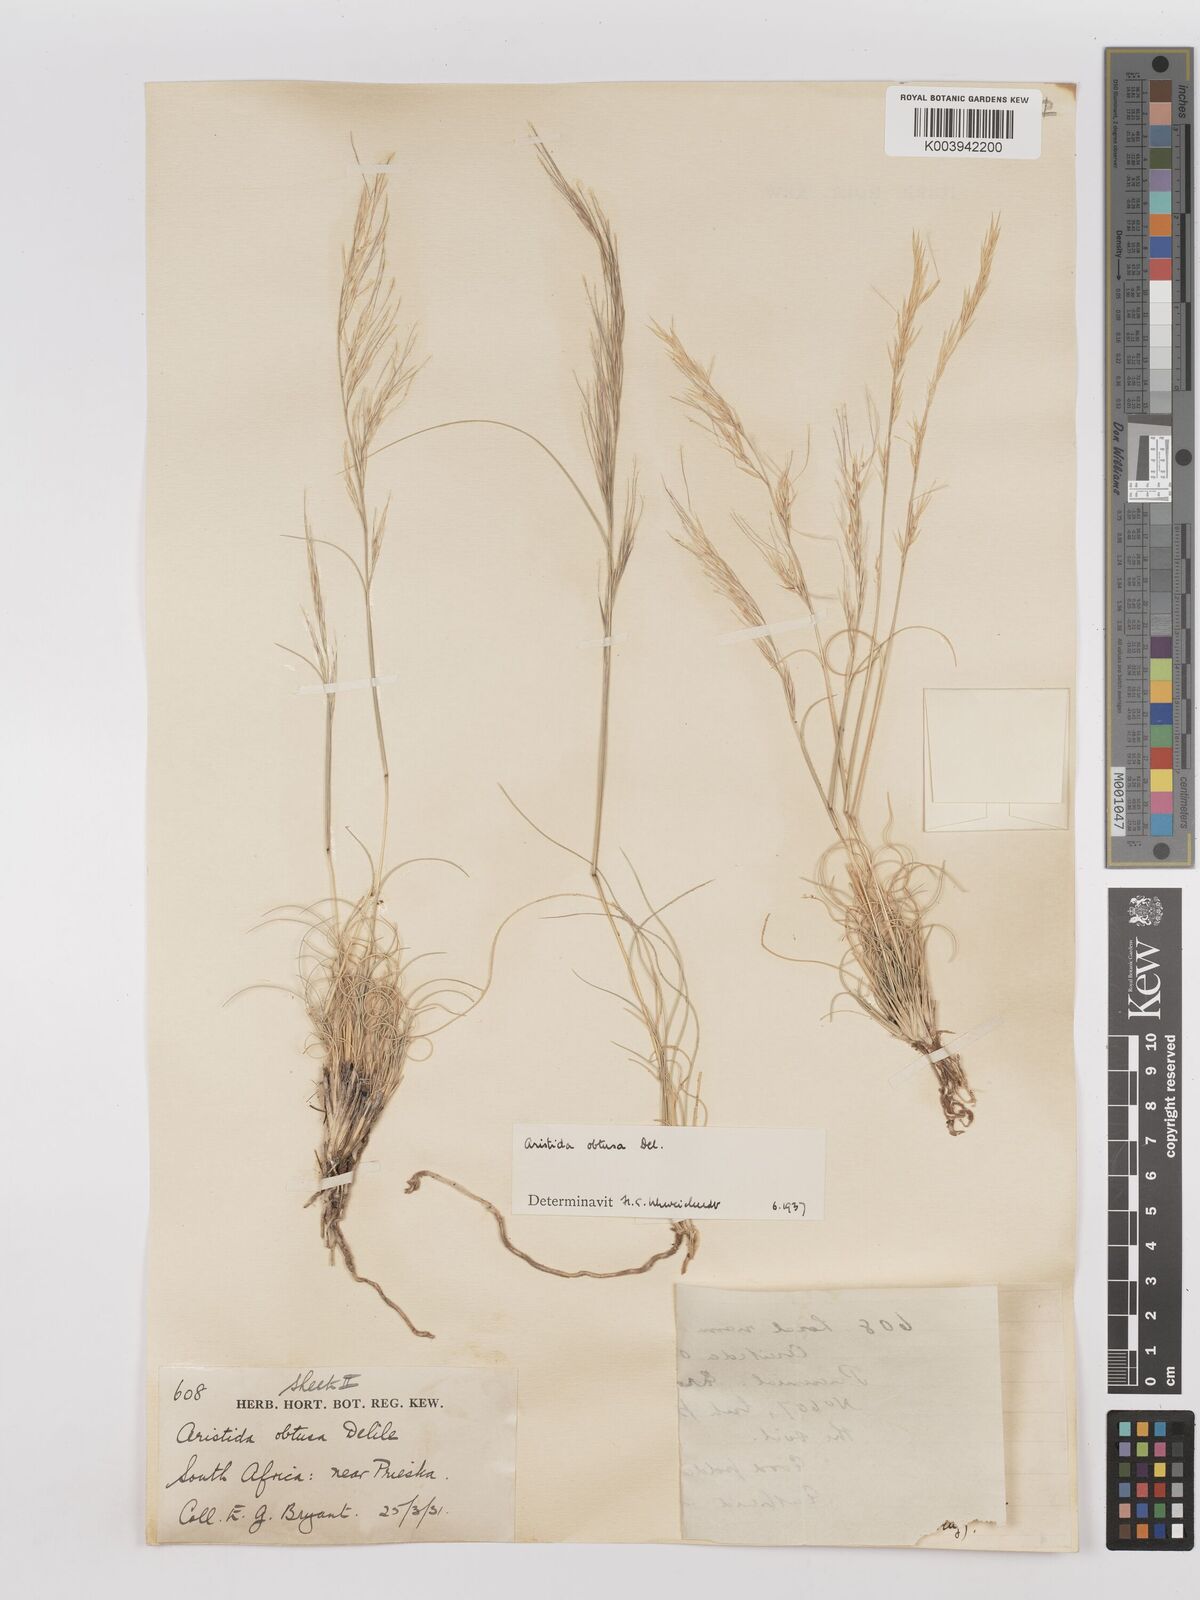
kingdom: Plantae
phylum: Tracheophyta
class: Liliopsida
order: Poales
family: Poaceae
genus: Stipagrostis
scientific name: Stipagrostis obtusa
